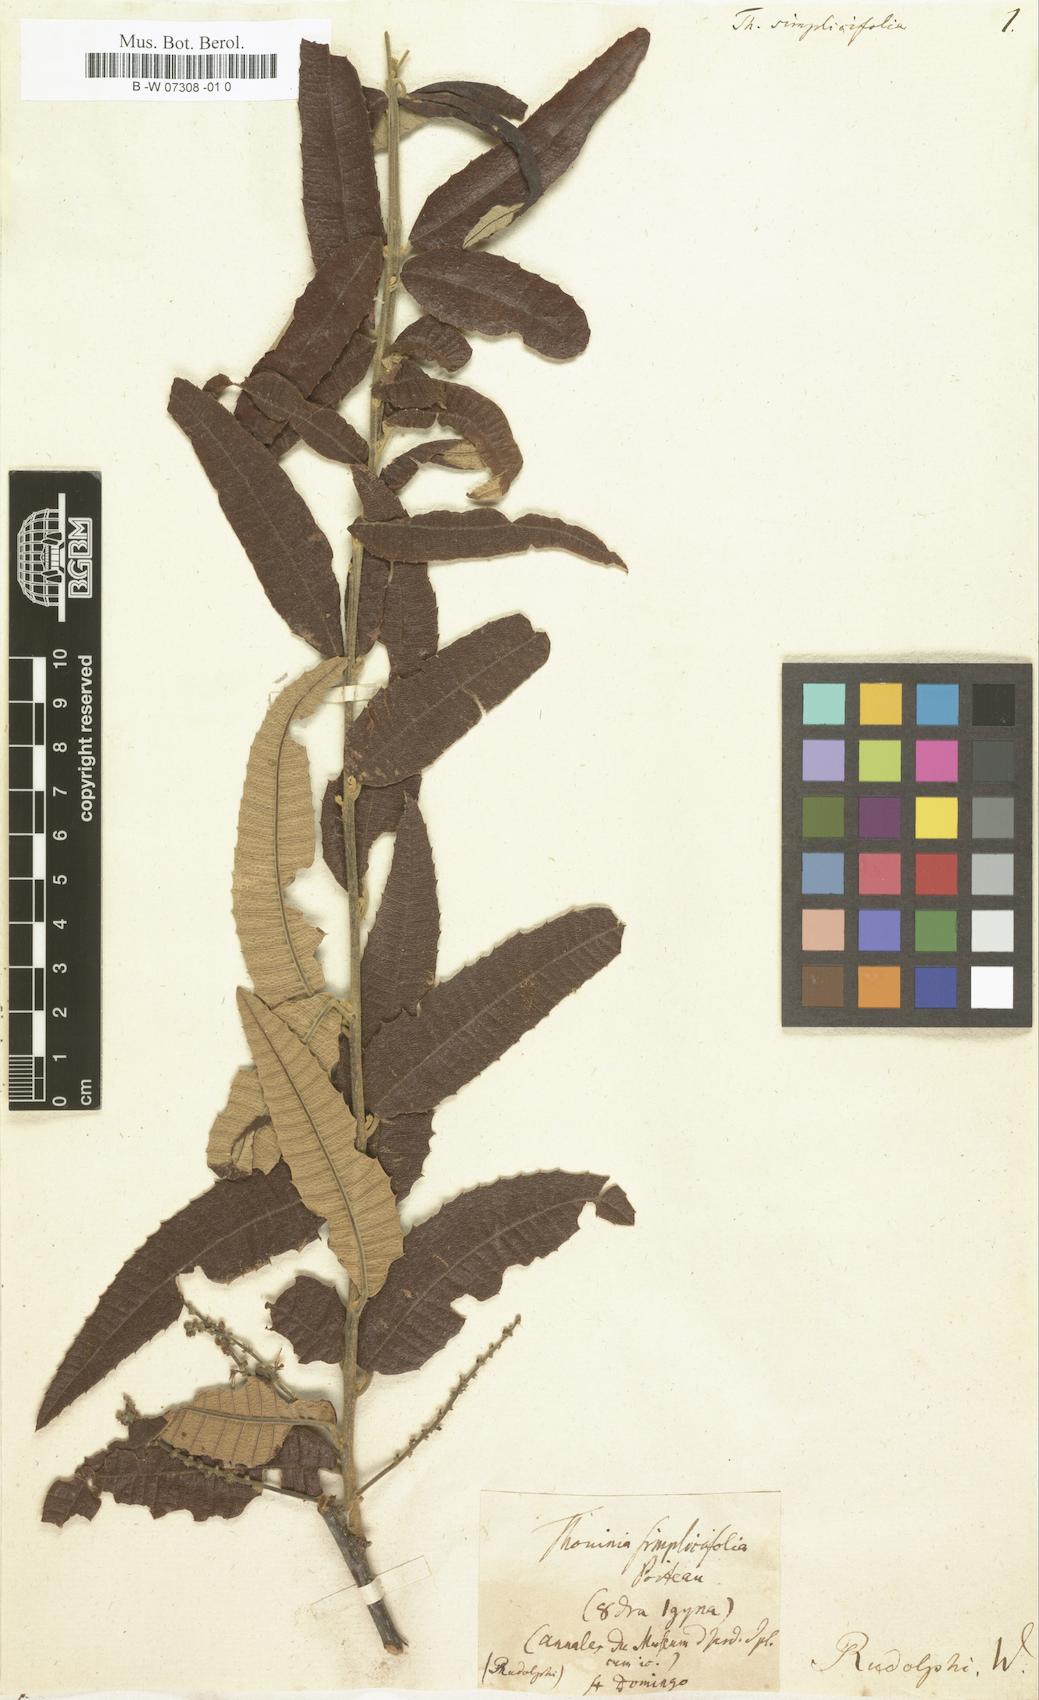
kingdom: Plantae
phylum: Tracheophyta
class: Magnoliopsida
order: Sapindales
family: Sapindaceae
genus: Thouinia
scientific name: Thouinia simplicifolia
